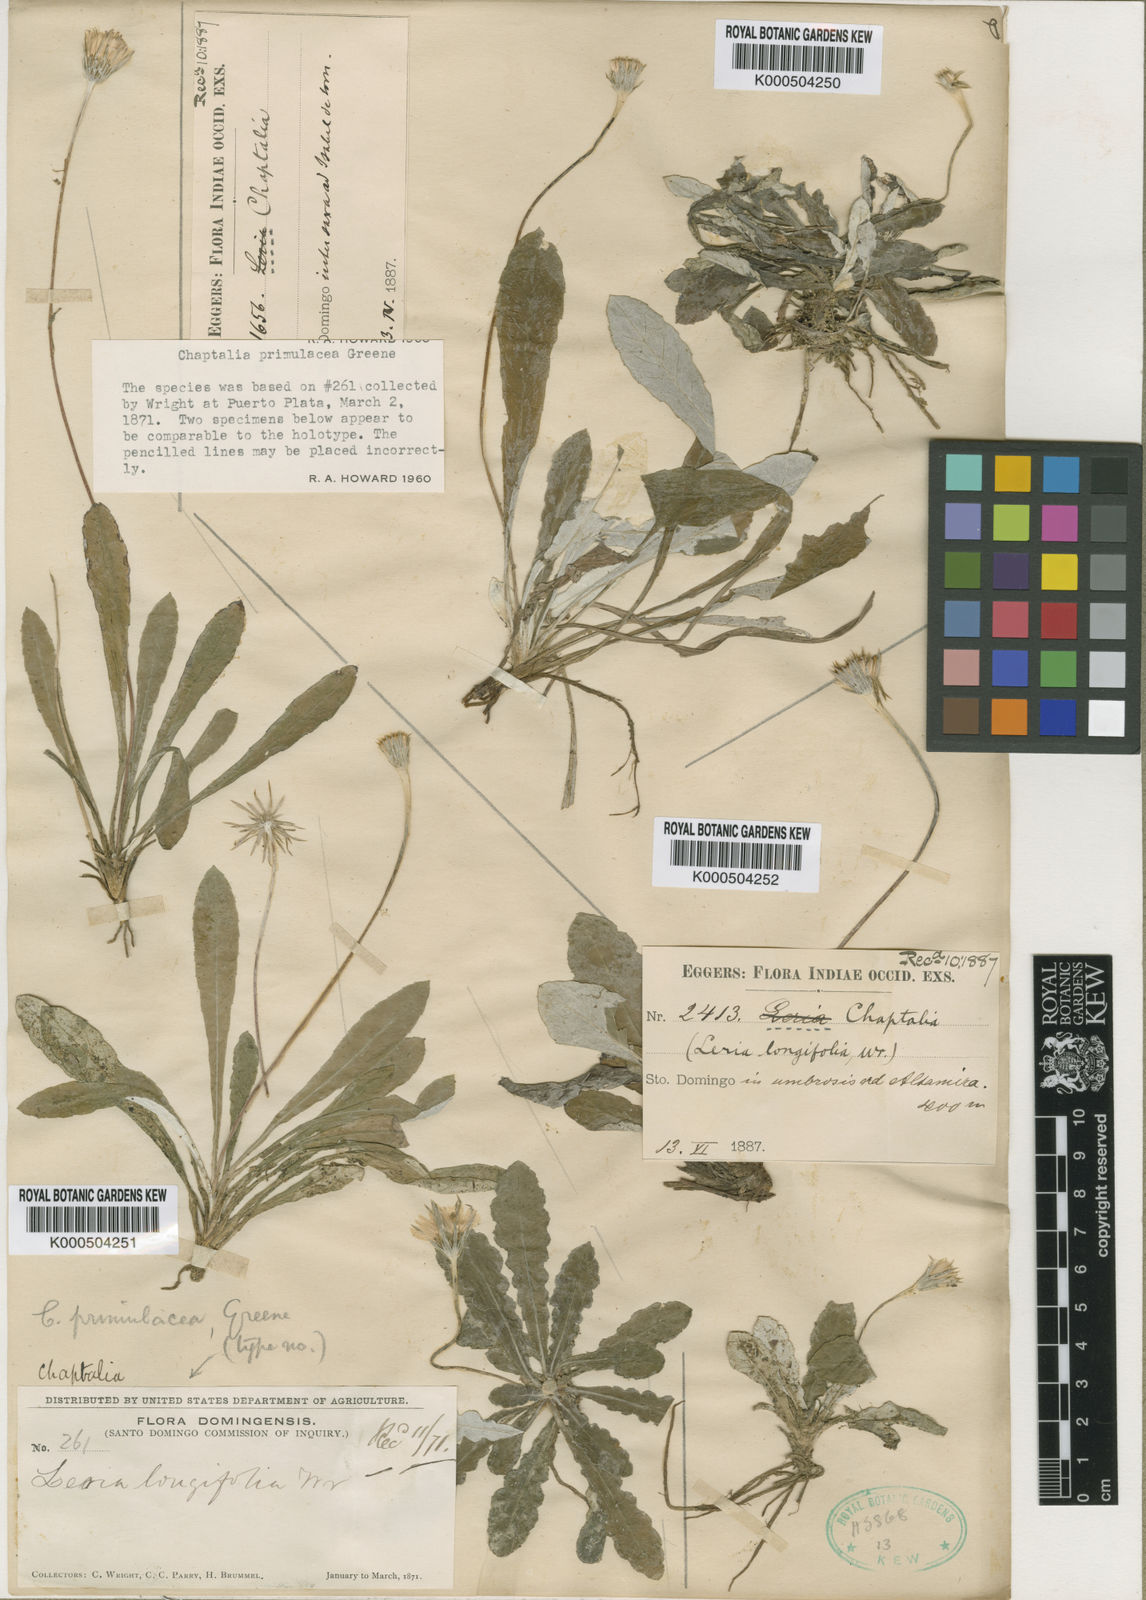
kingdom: Plantae
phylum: Tracheophyta
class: Magnoliopsida
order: Asterales
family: Asteraceae
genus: Chaptalia
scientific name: Chaptalia dentata
